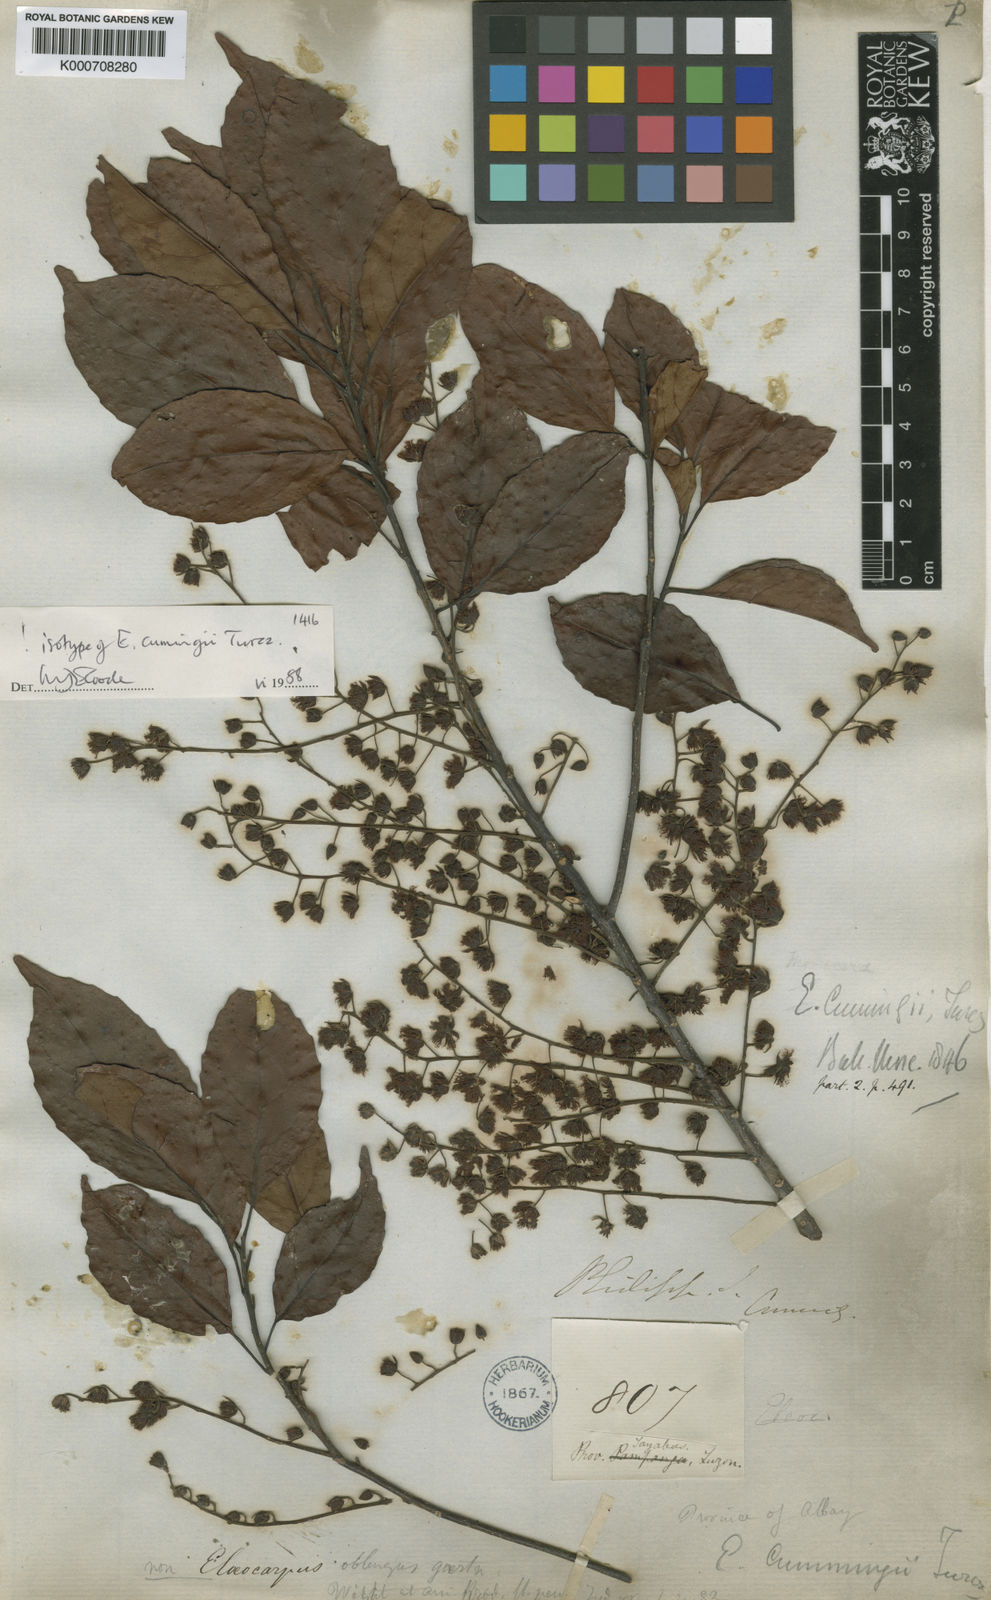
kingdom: Plantae
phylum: Tracheophyta
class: Magnoliopsida
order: Oxalidales
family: Elaeocarpaceae
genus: Elaeocarpus
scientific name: Elaeocarpus cumingii
